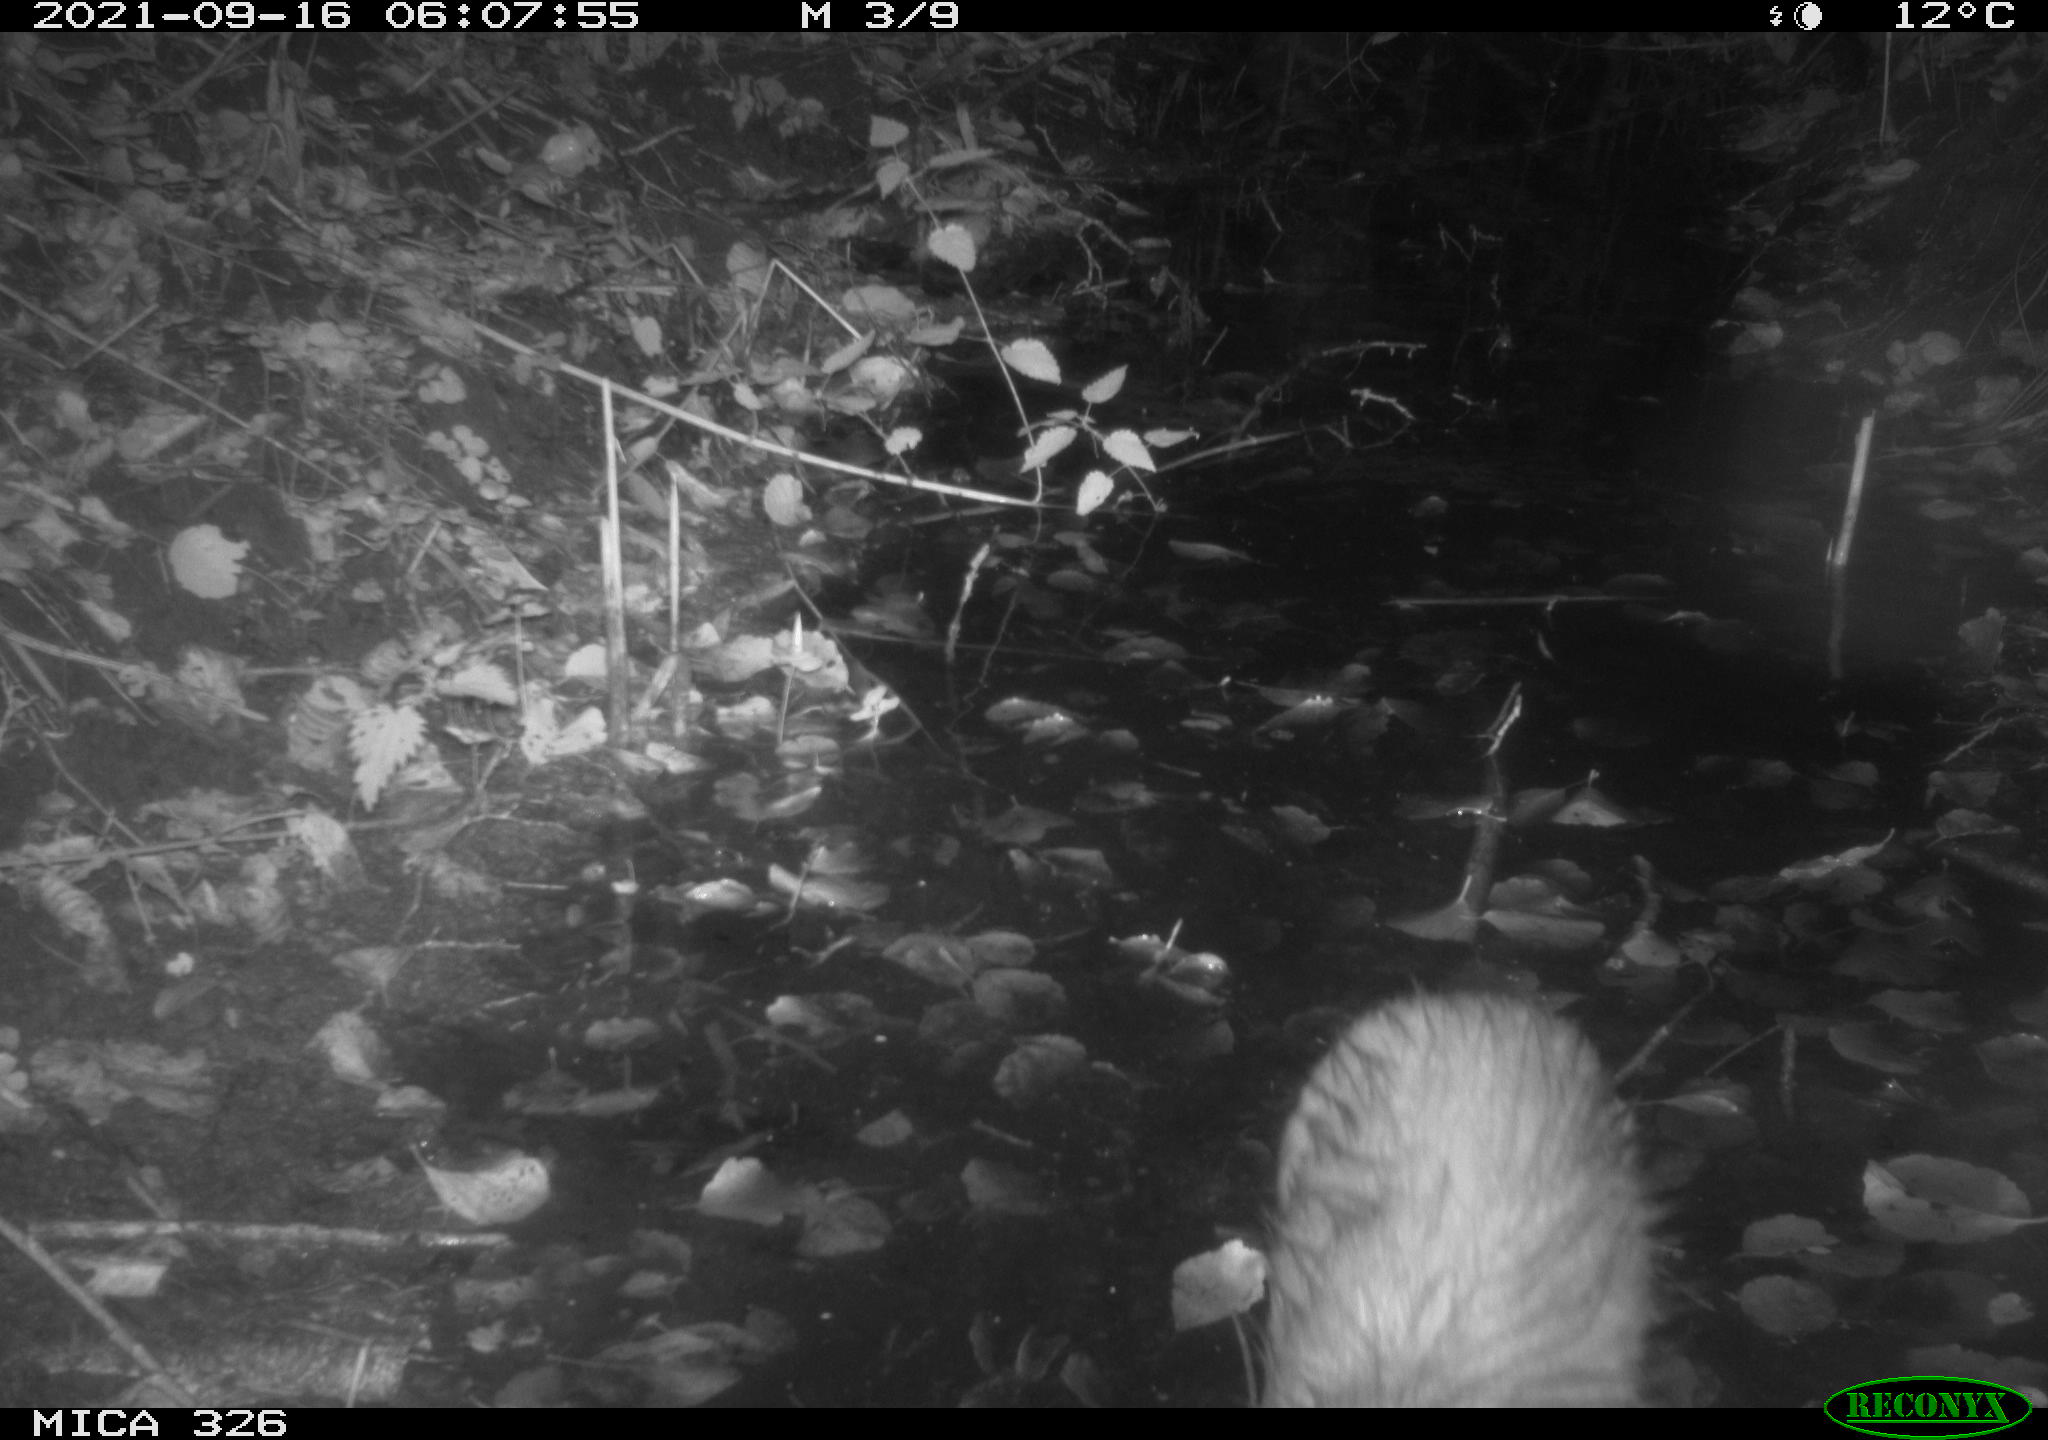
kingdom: Animalia
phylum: Chordata
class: Mammalia
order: Rodentia
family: Myocastoridae
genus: Myocastor
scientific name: Myocastor coypus
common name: Coypu
